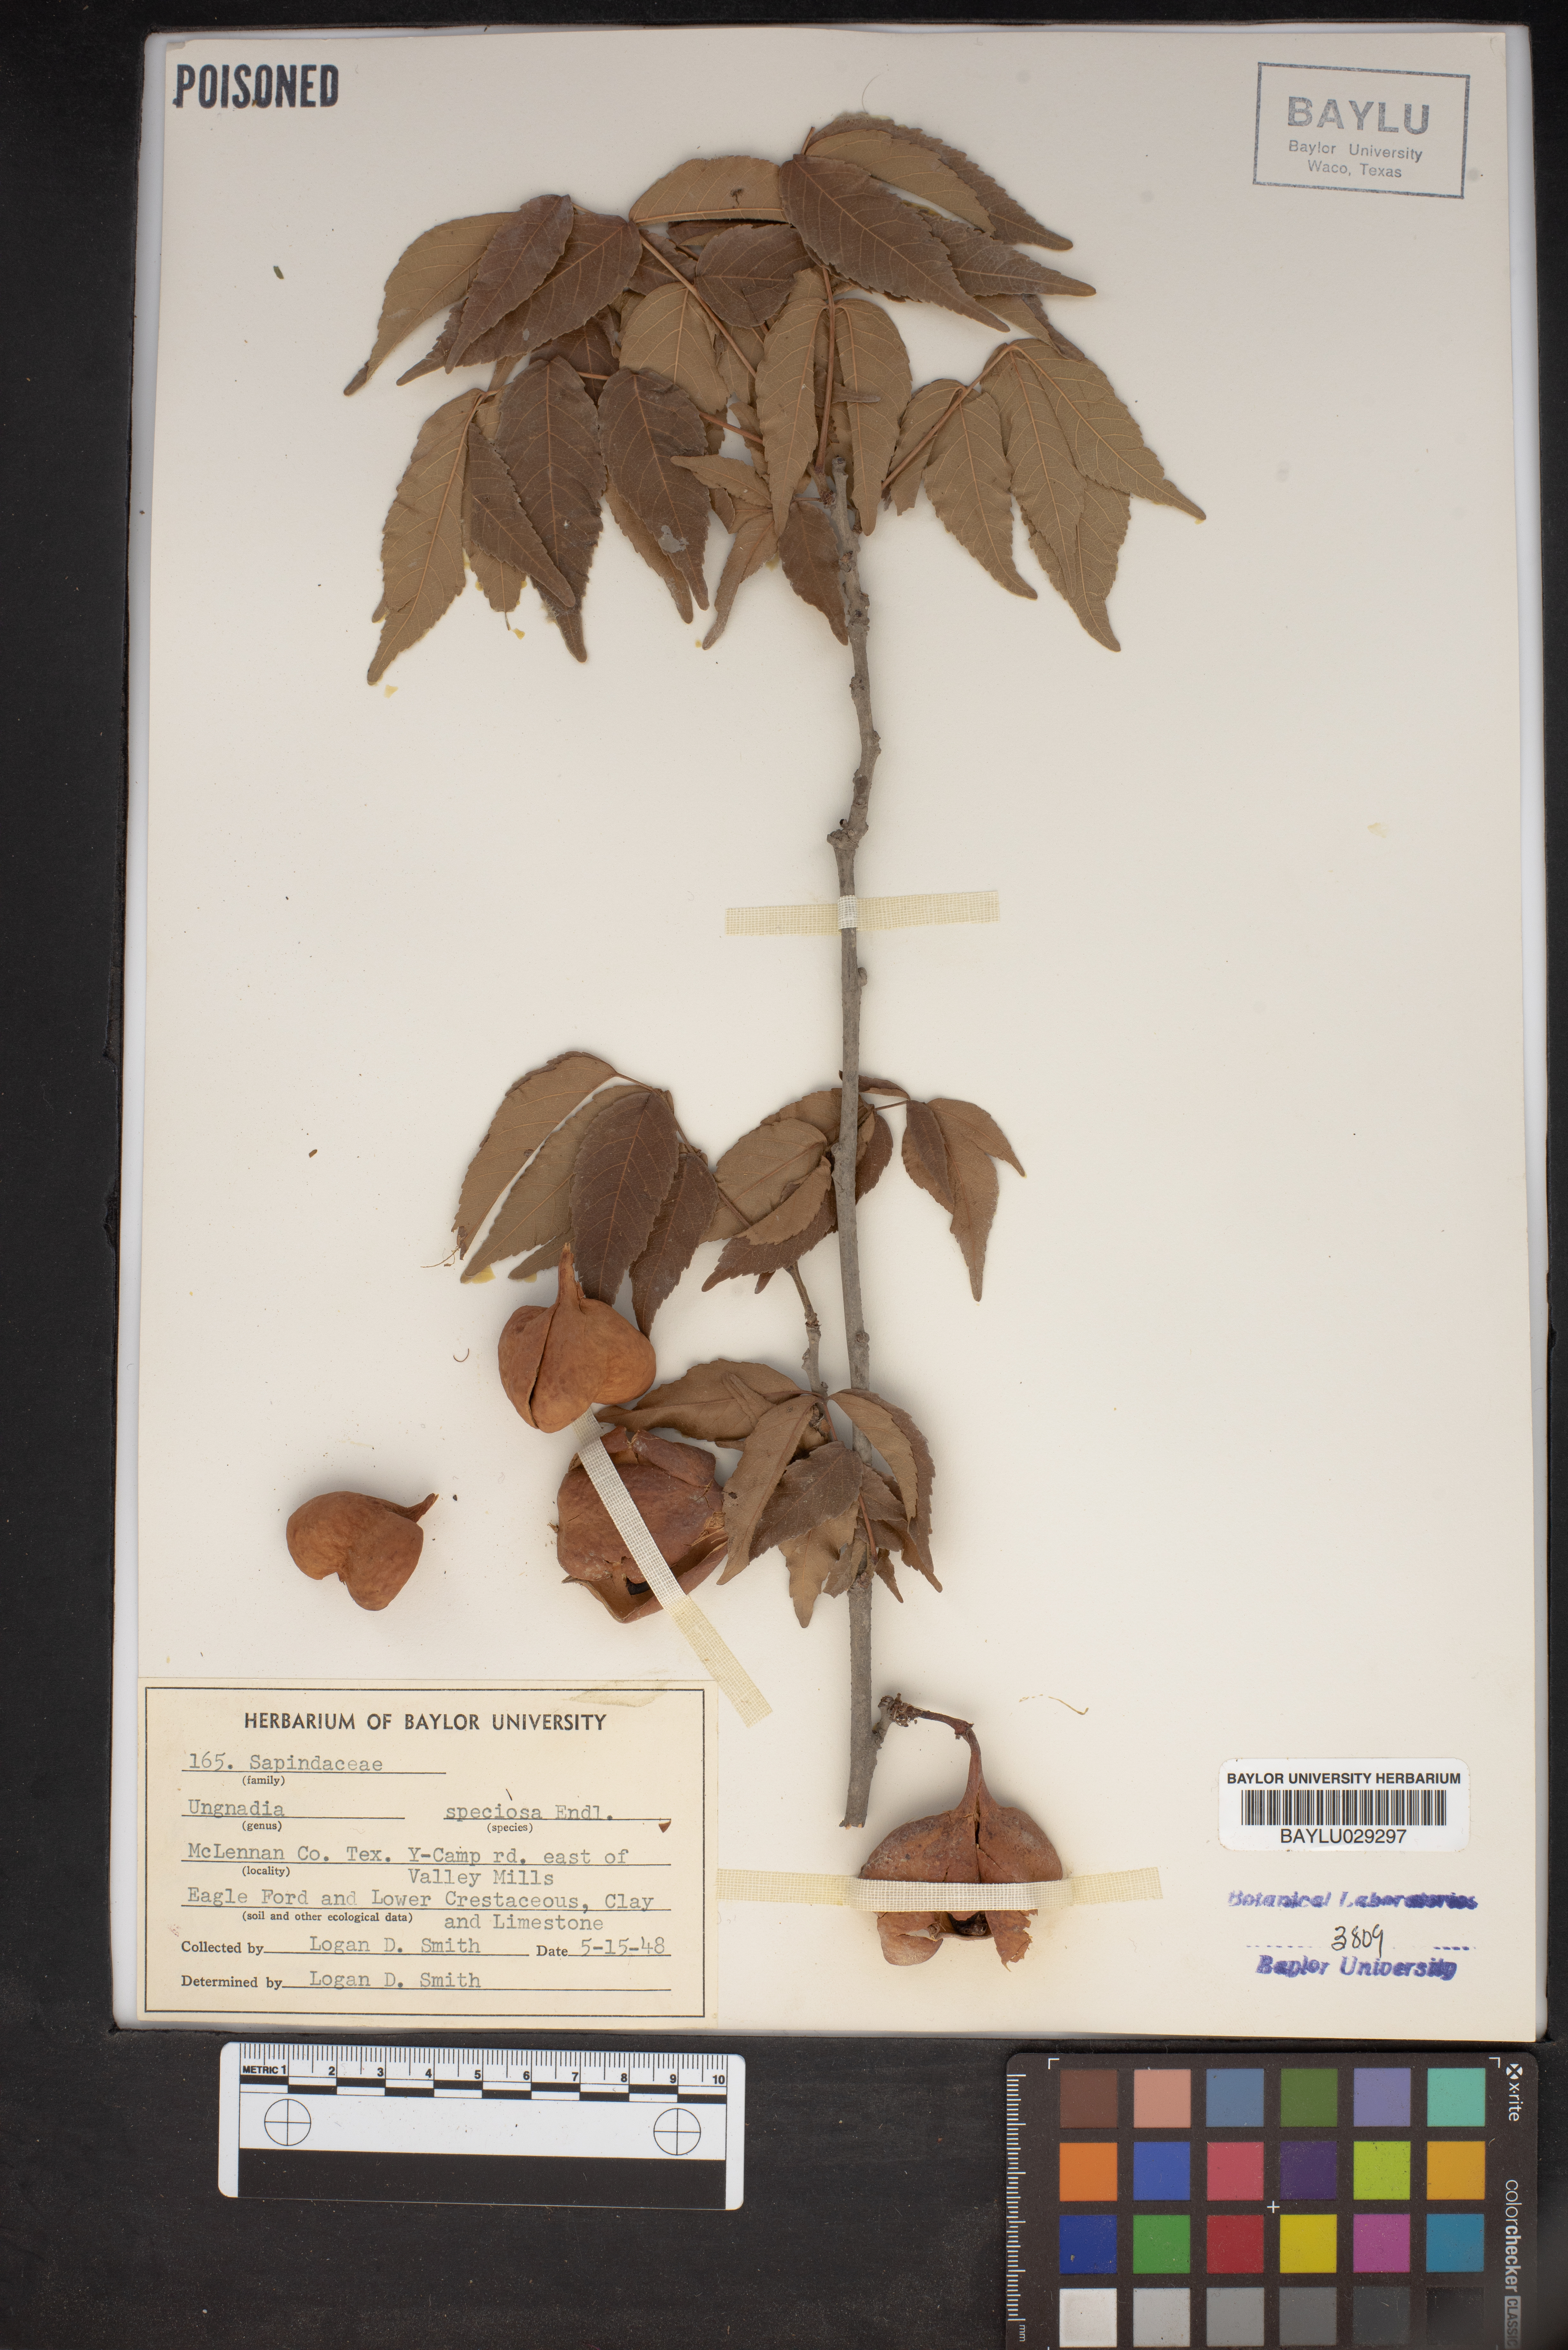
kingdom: Plantae
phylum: Tracheophyta
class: Magnoliopsida
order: Sapindales
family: Sapindaceae
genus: Ungnadia
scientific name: Ungnadia speciosa
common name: Texas-buckeye
